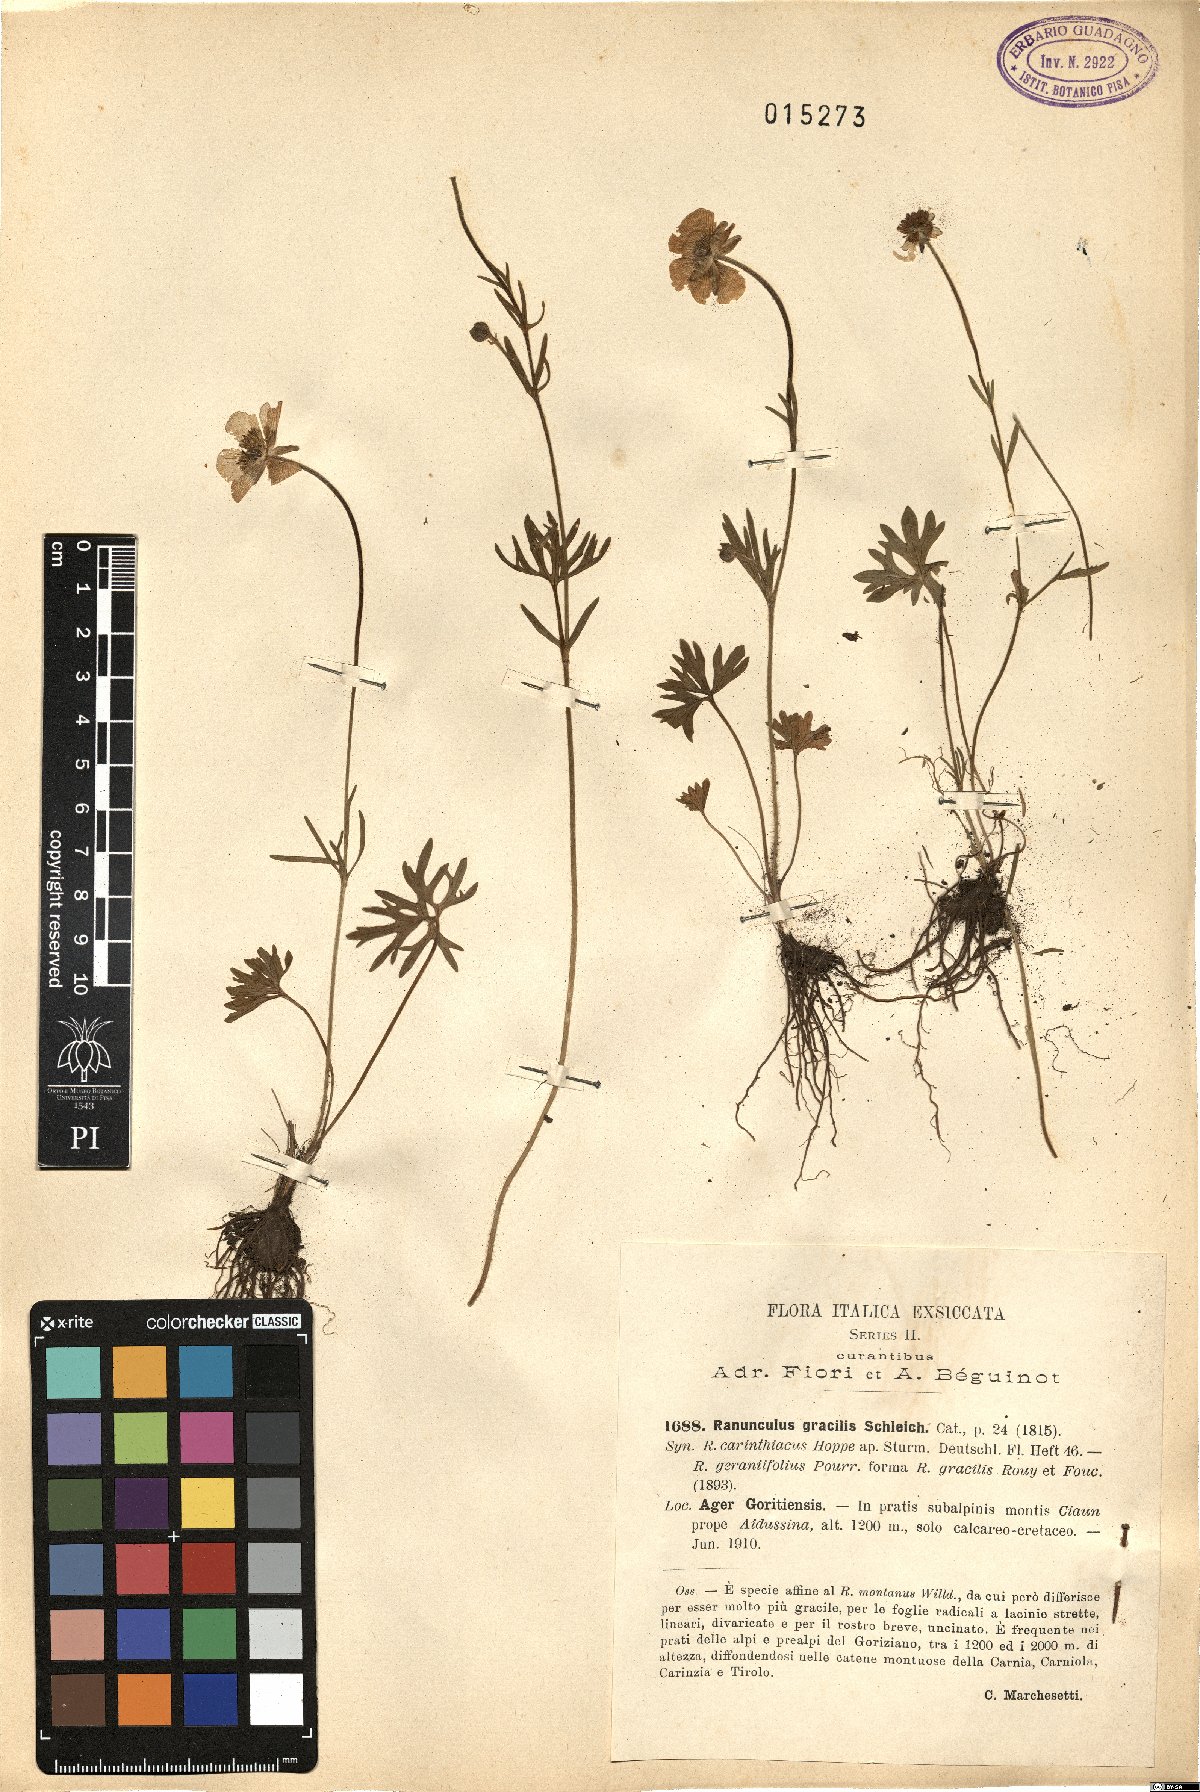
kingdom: Plantae
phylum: Tracheophyta
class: Magnoliopsida
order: Ranunculales
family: Ranunculaceae
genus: Ranunculus
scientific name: Ranunculus gracilis
